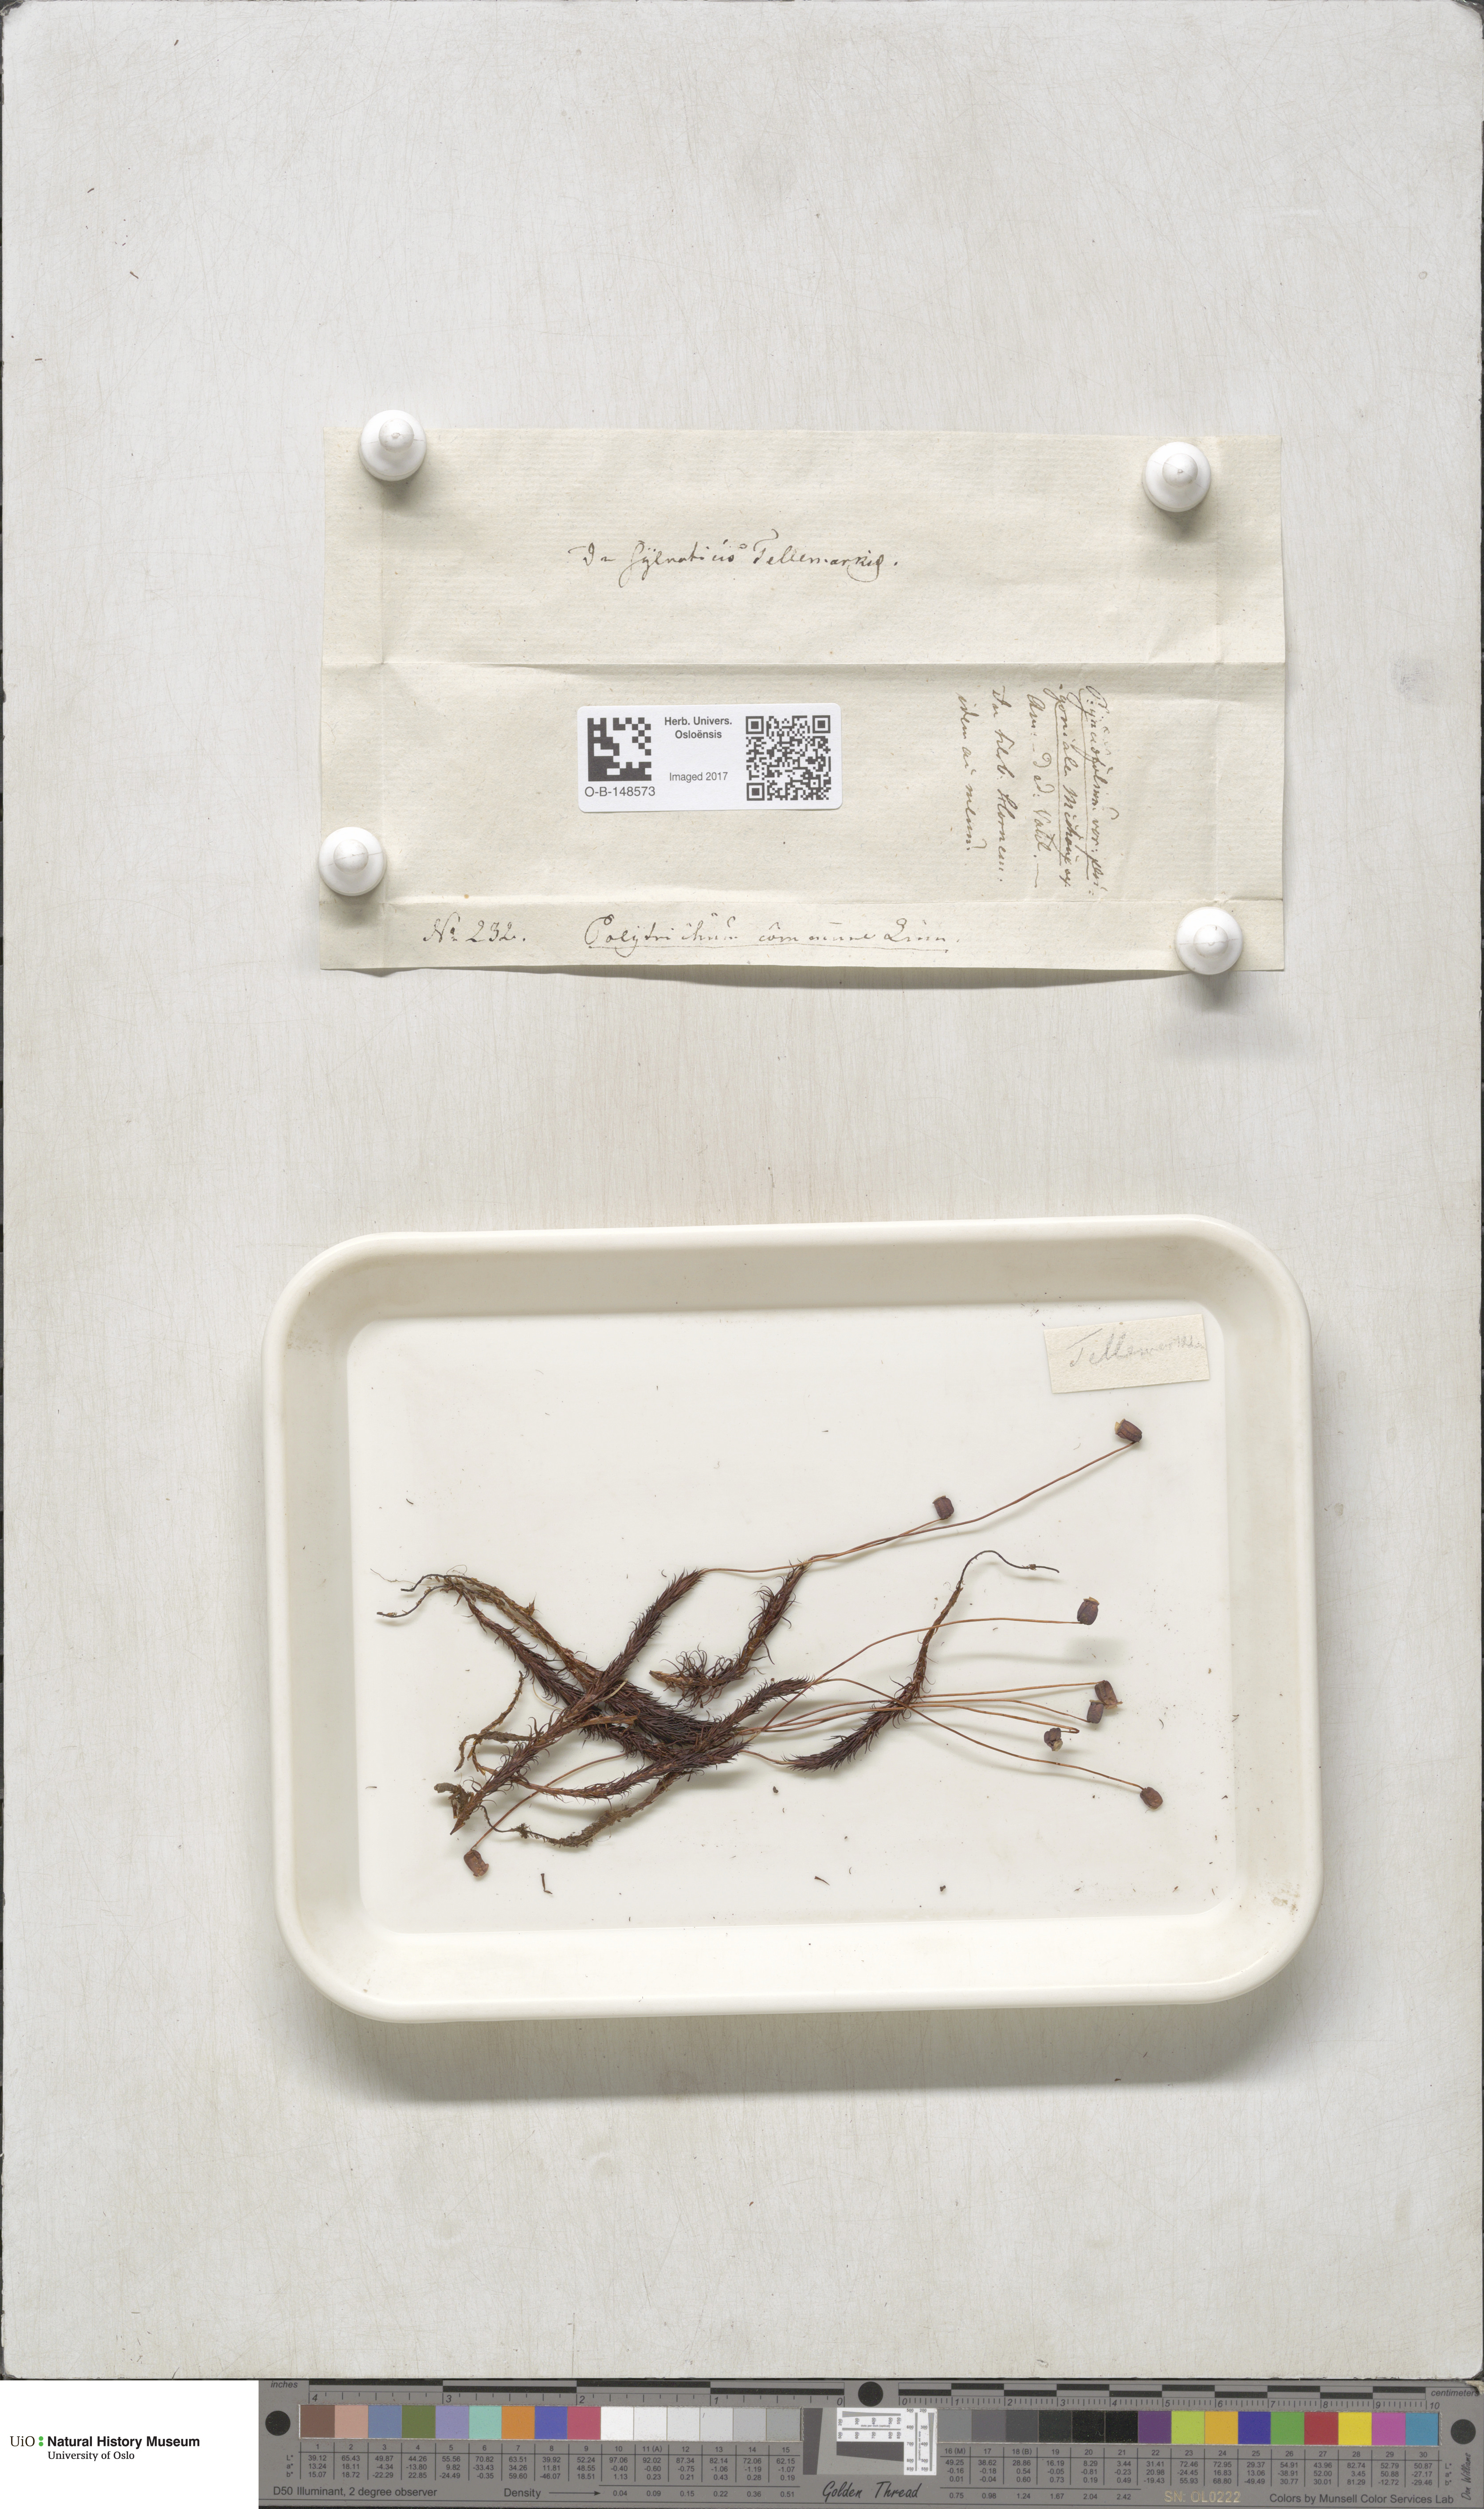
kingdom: Plantae
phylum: Bryophyta
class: Polytrichopsida
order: Polytrichales
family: Polytrichaceae
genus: Polytrichum
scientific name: Polytrichum commune
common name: Common haircap
